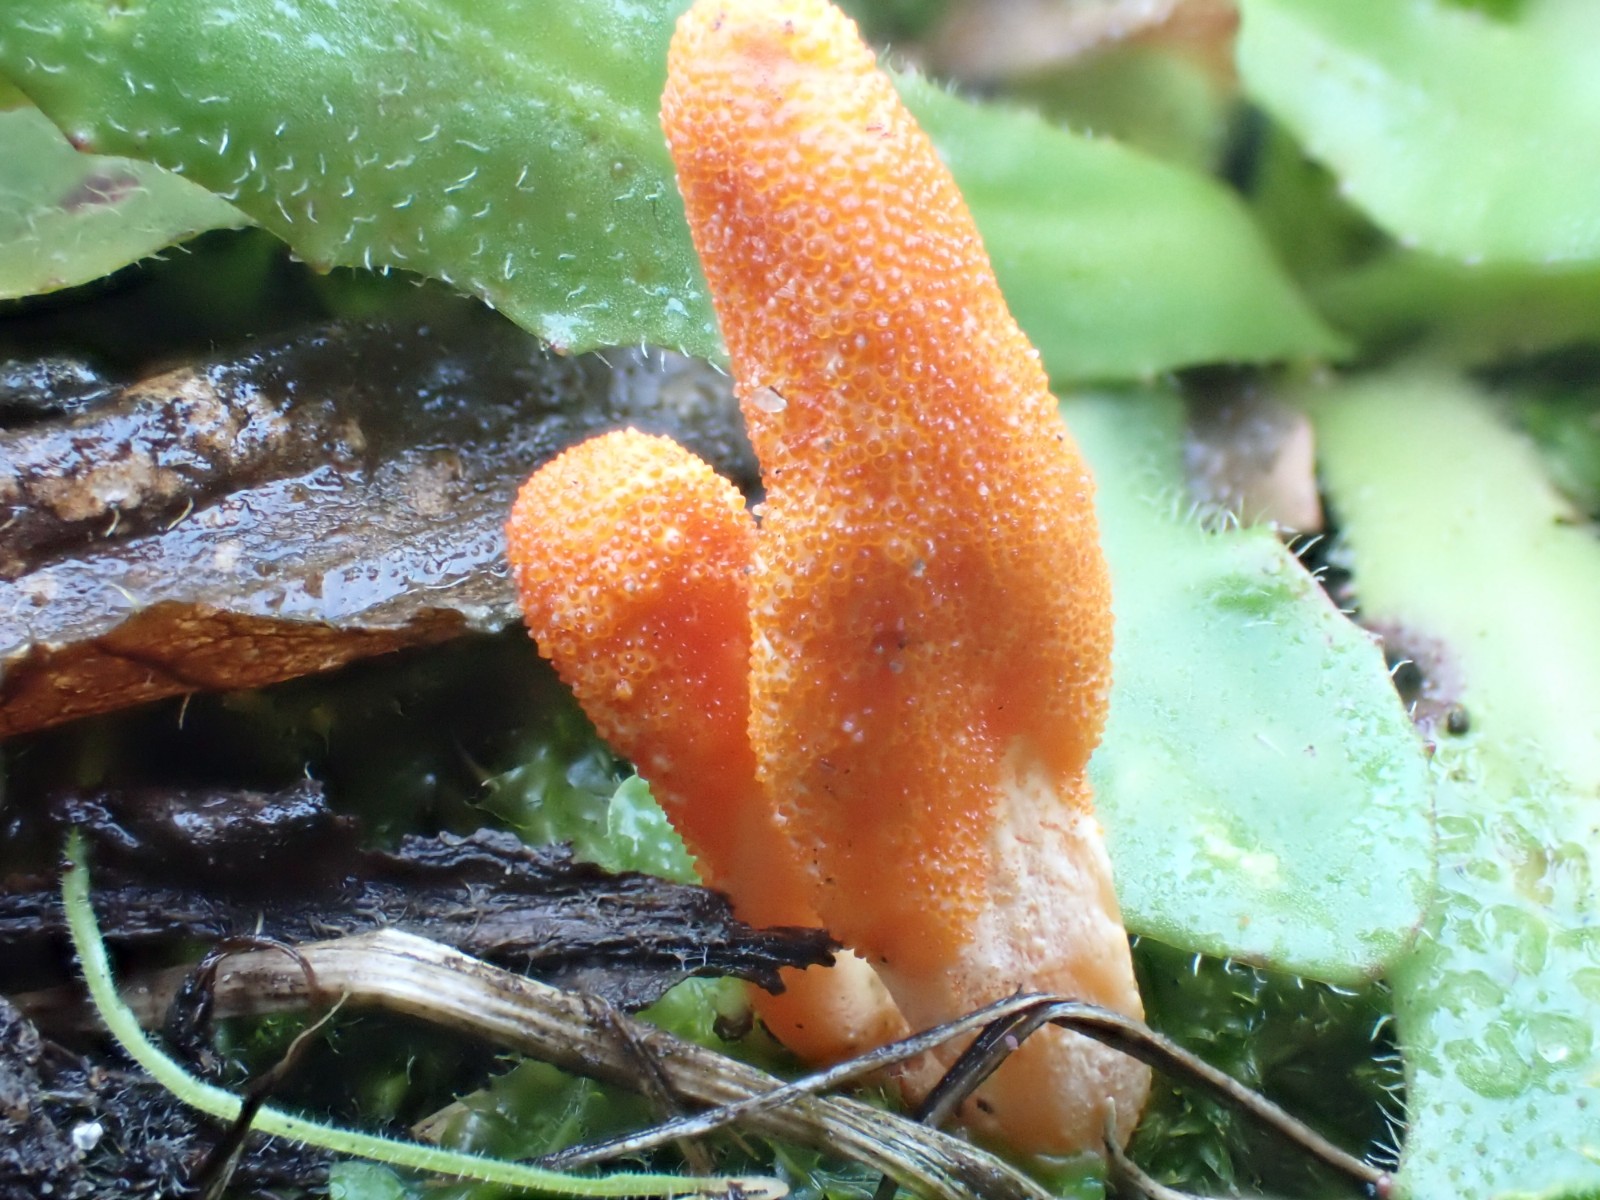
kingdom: Fungi
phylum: Ascomycota
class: Sordariomycetes
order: Hypocreales
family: Cordycipitaceae
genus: Cordyceps
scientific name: Cordyceps militaris
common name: puppe-snyltekølle
